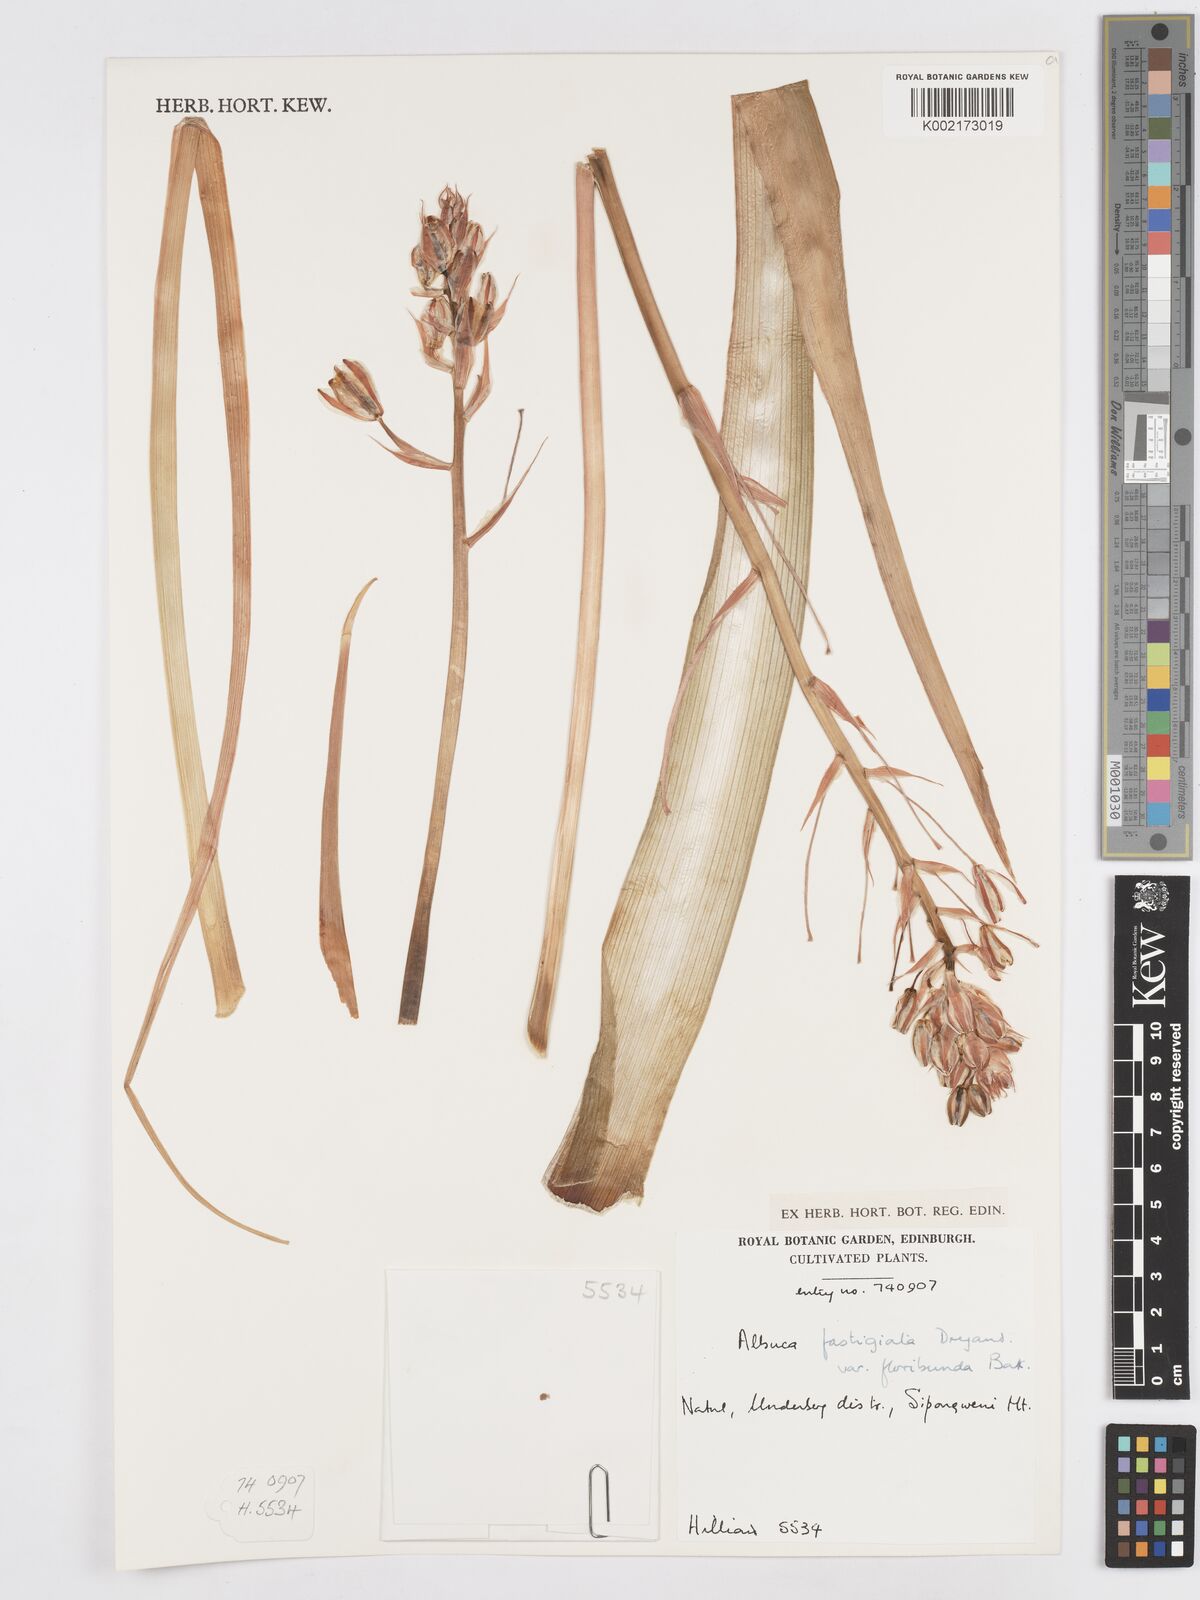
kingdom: Plantae
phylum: Tracheophyta
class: Liliopsida
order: Asparagales
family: Asparagaceae
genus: Albuca
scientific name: Albuca tortuosa
